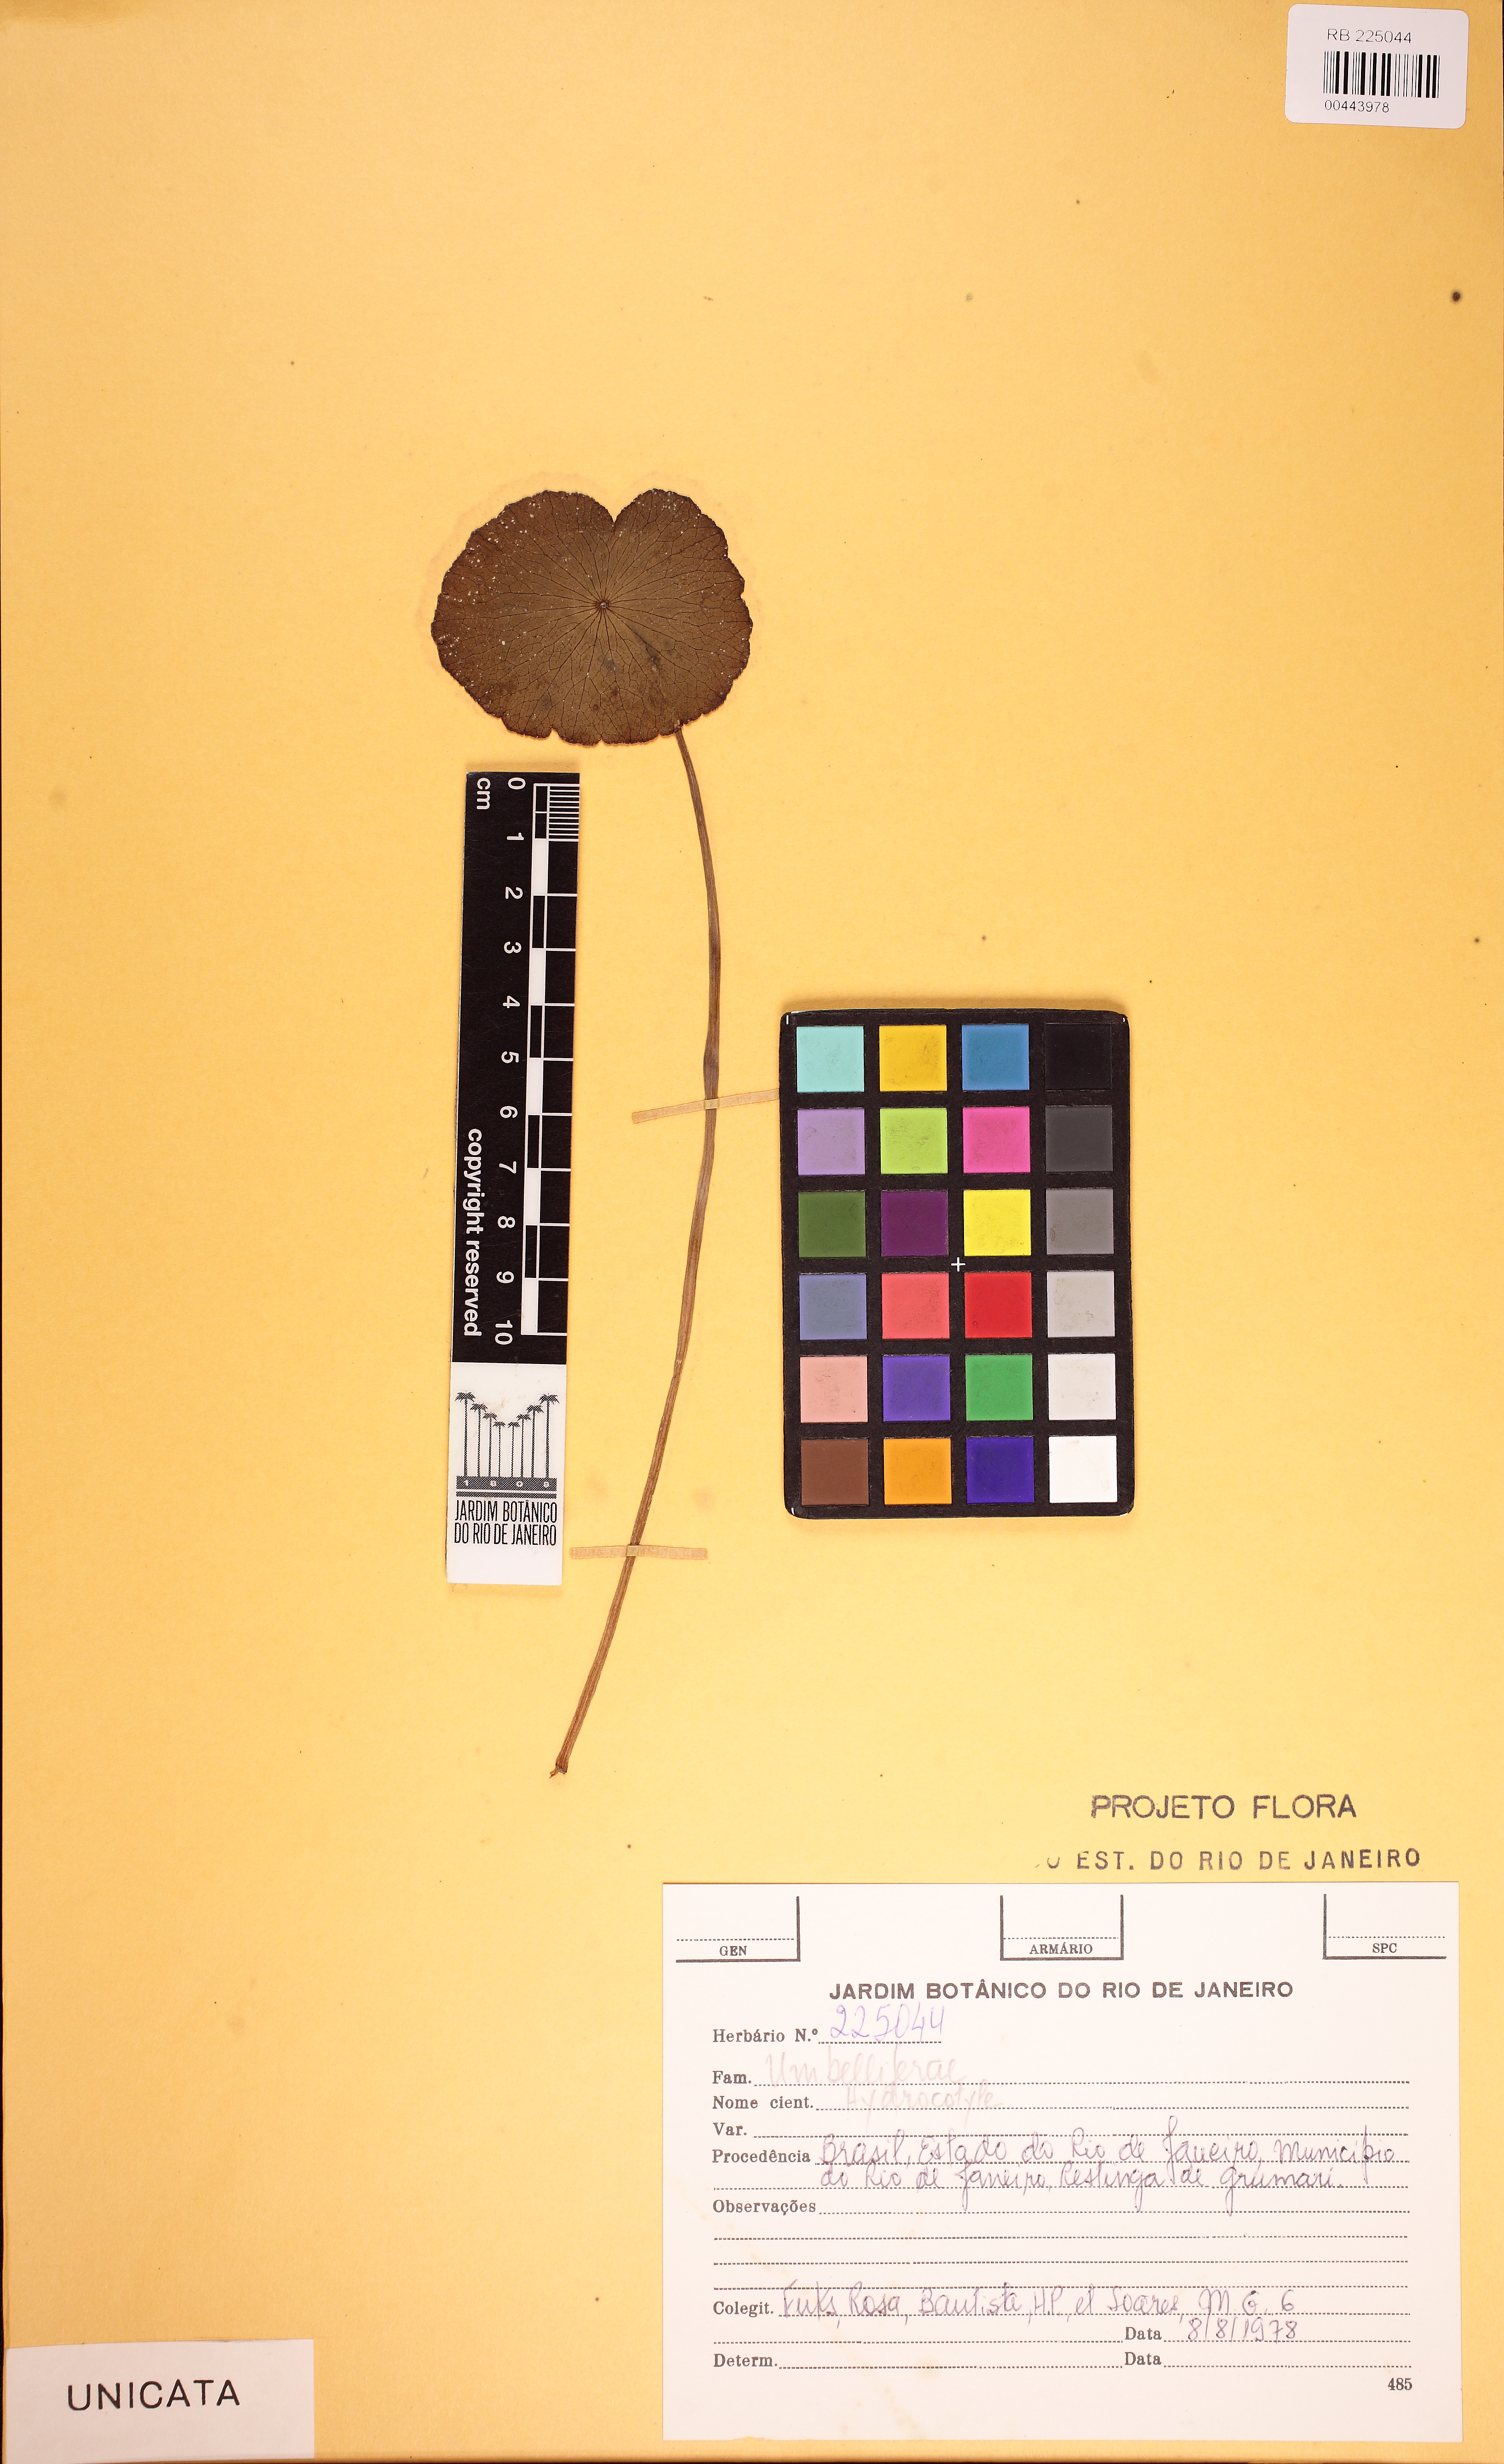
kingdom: Plantae
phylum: Tracheophyta
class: Magnoliopsida
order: Apiales
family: Araliaceae
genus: Hydrocotyle
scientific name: Hydrocotyle bonariensis
